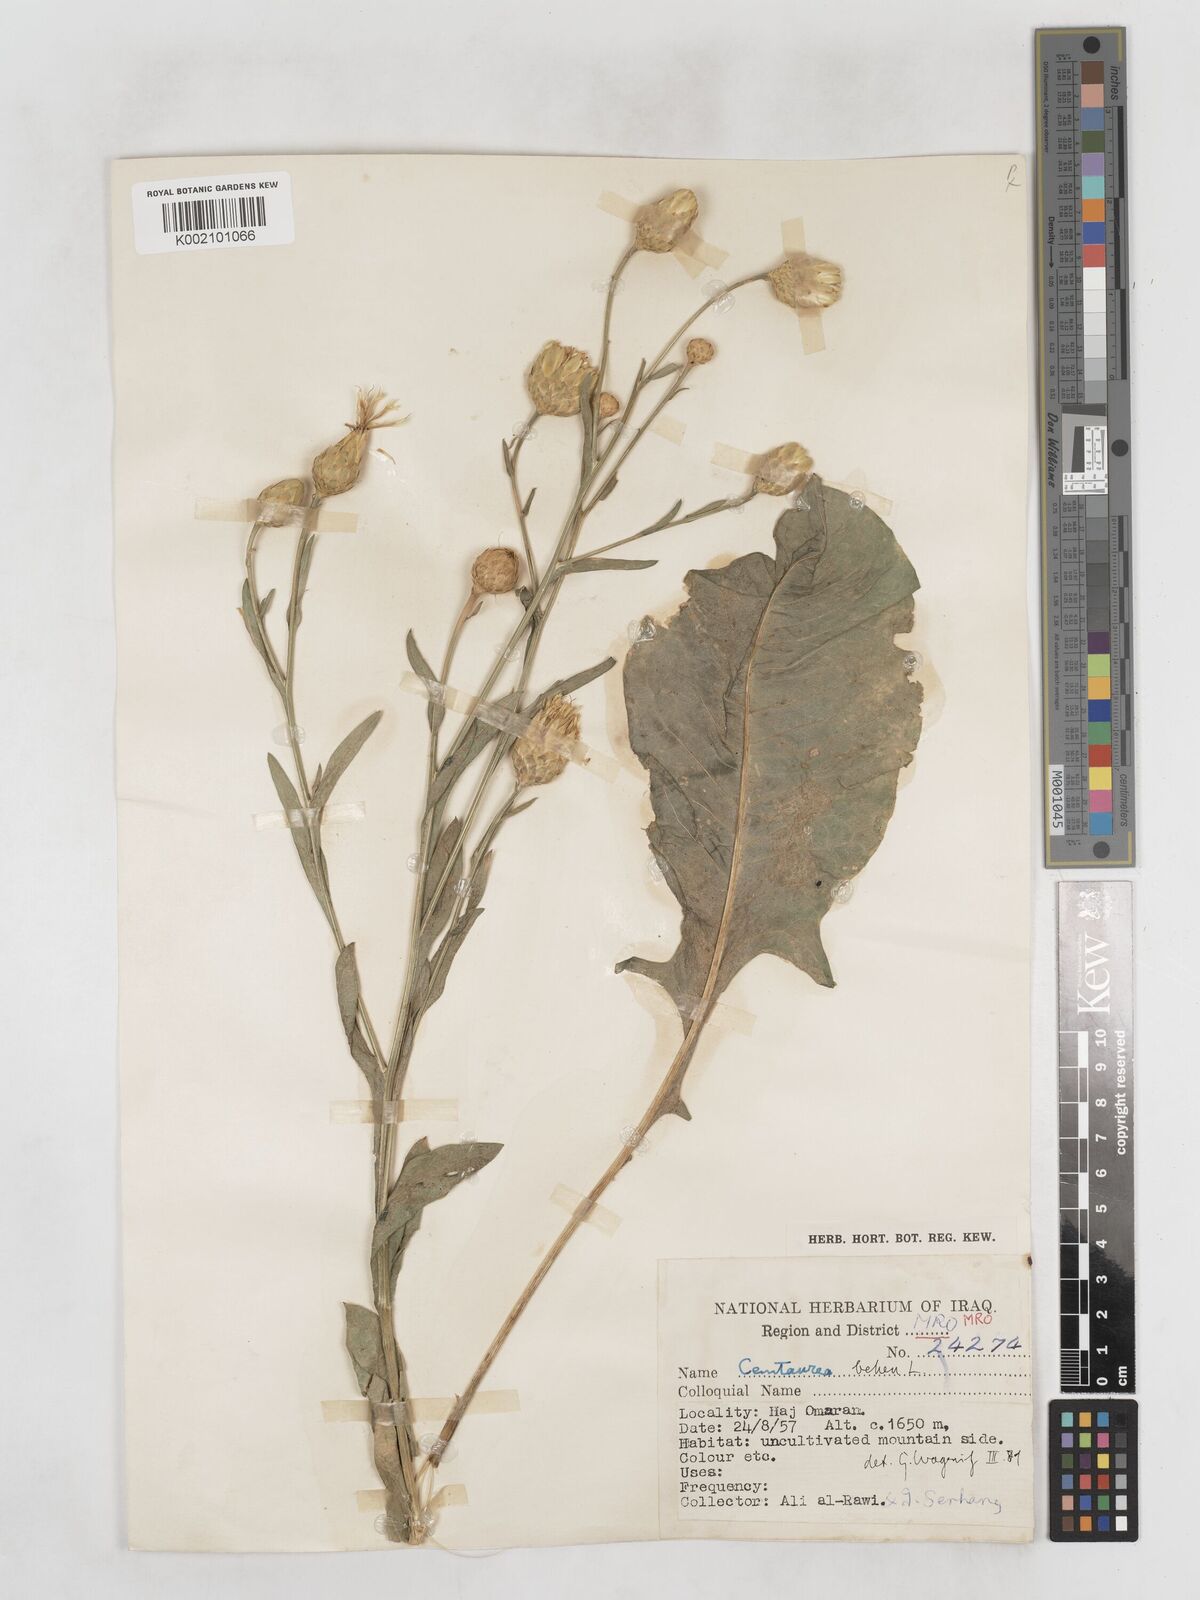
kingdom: Plantae
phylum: Tracheophyta
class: Magnoliopsida
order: Asterales
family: Asteraceae
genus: Centaurea
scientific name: Centaurea behen
